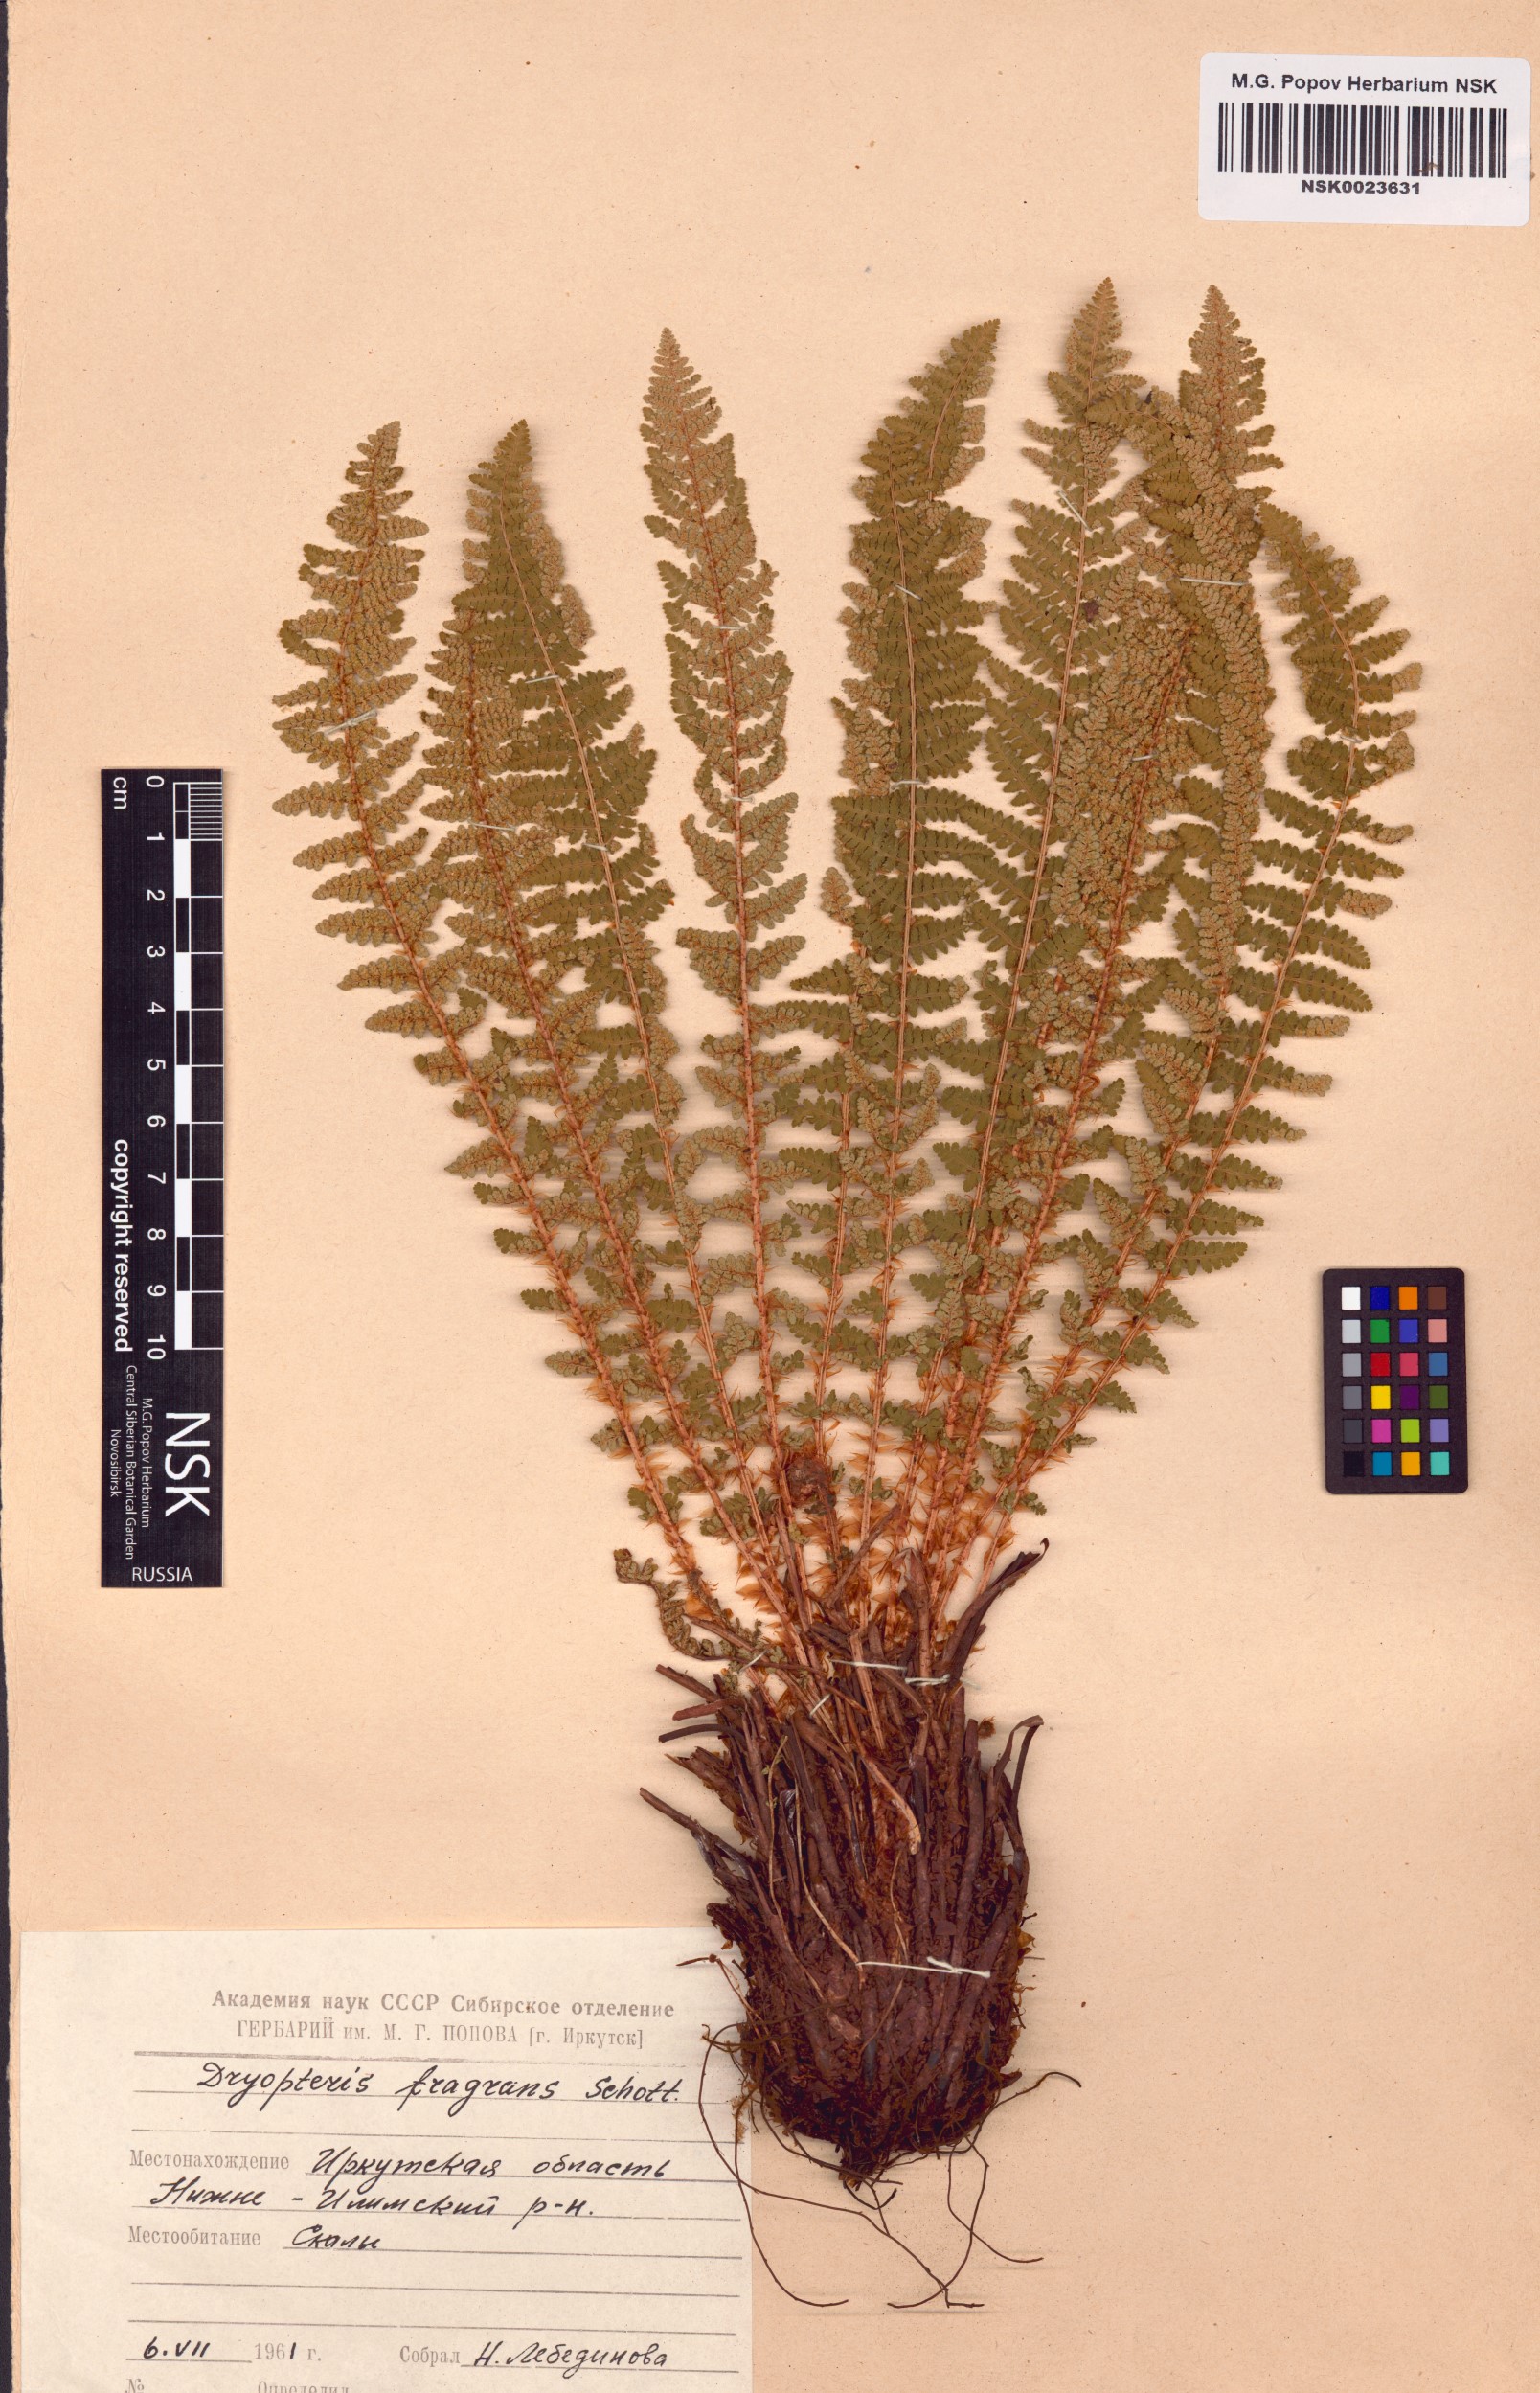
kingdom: Plantae
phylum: Tracheophyta
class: Polypodiopsida
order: Polypodiales
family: Dryopteridaceae
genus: Dryopteris
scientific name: Dryopteris fragrans
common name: Fragrant wood fern
